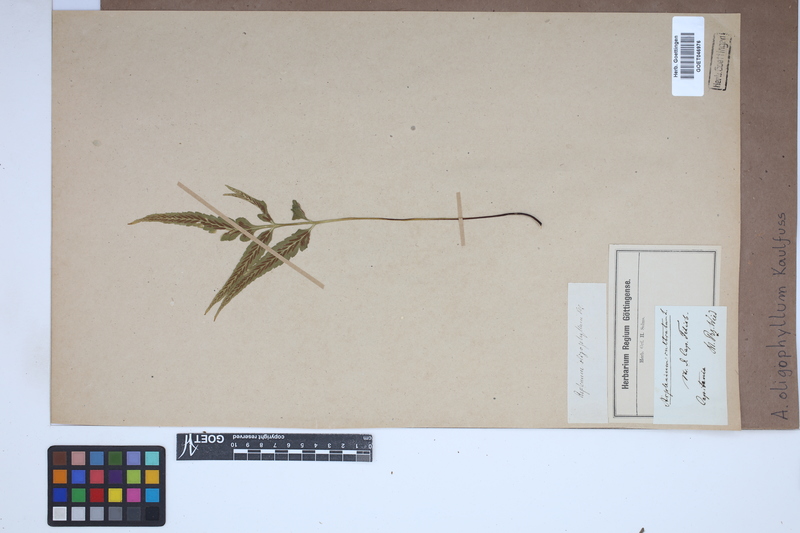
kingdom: Plantae
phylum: Tracheophyta
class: Polypodiopsida
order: Polypodiales
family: Aspleniaceae
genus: Asplenium
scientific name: Asplenium oligophyllum
